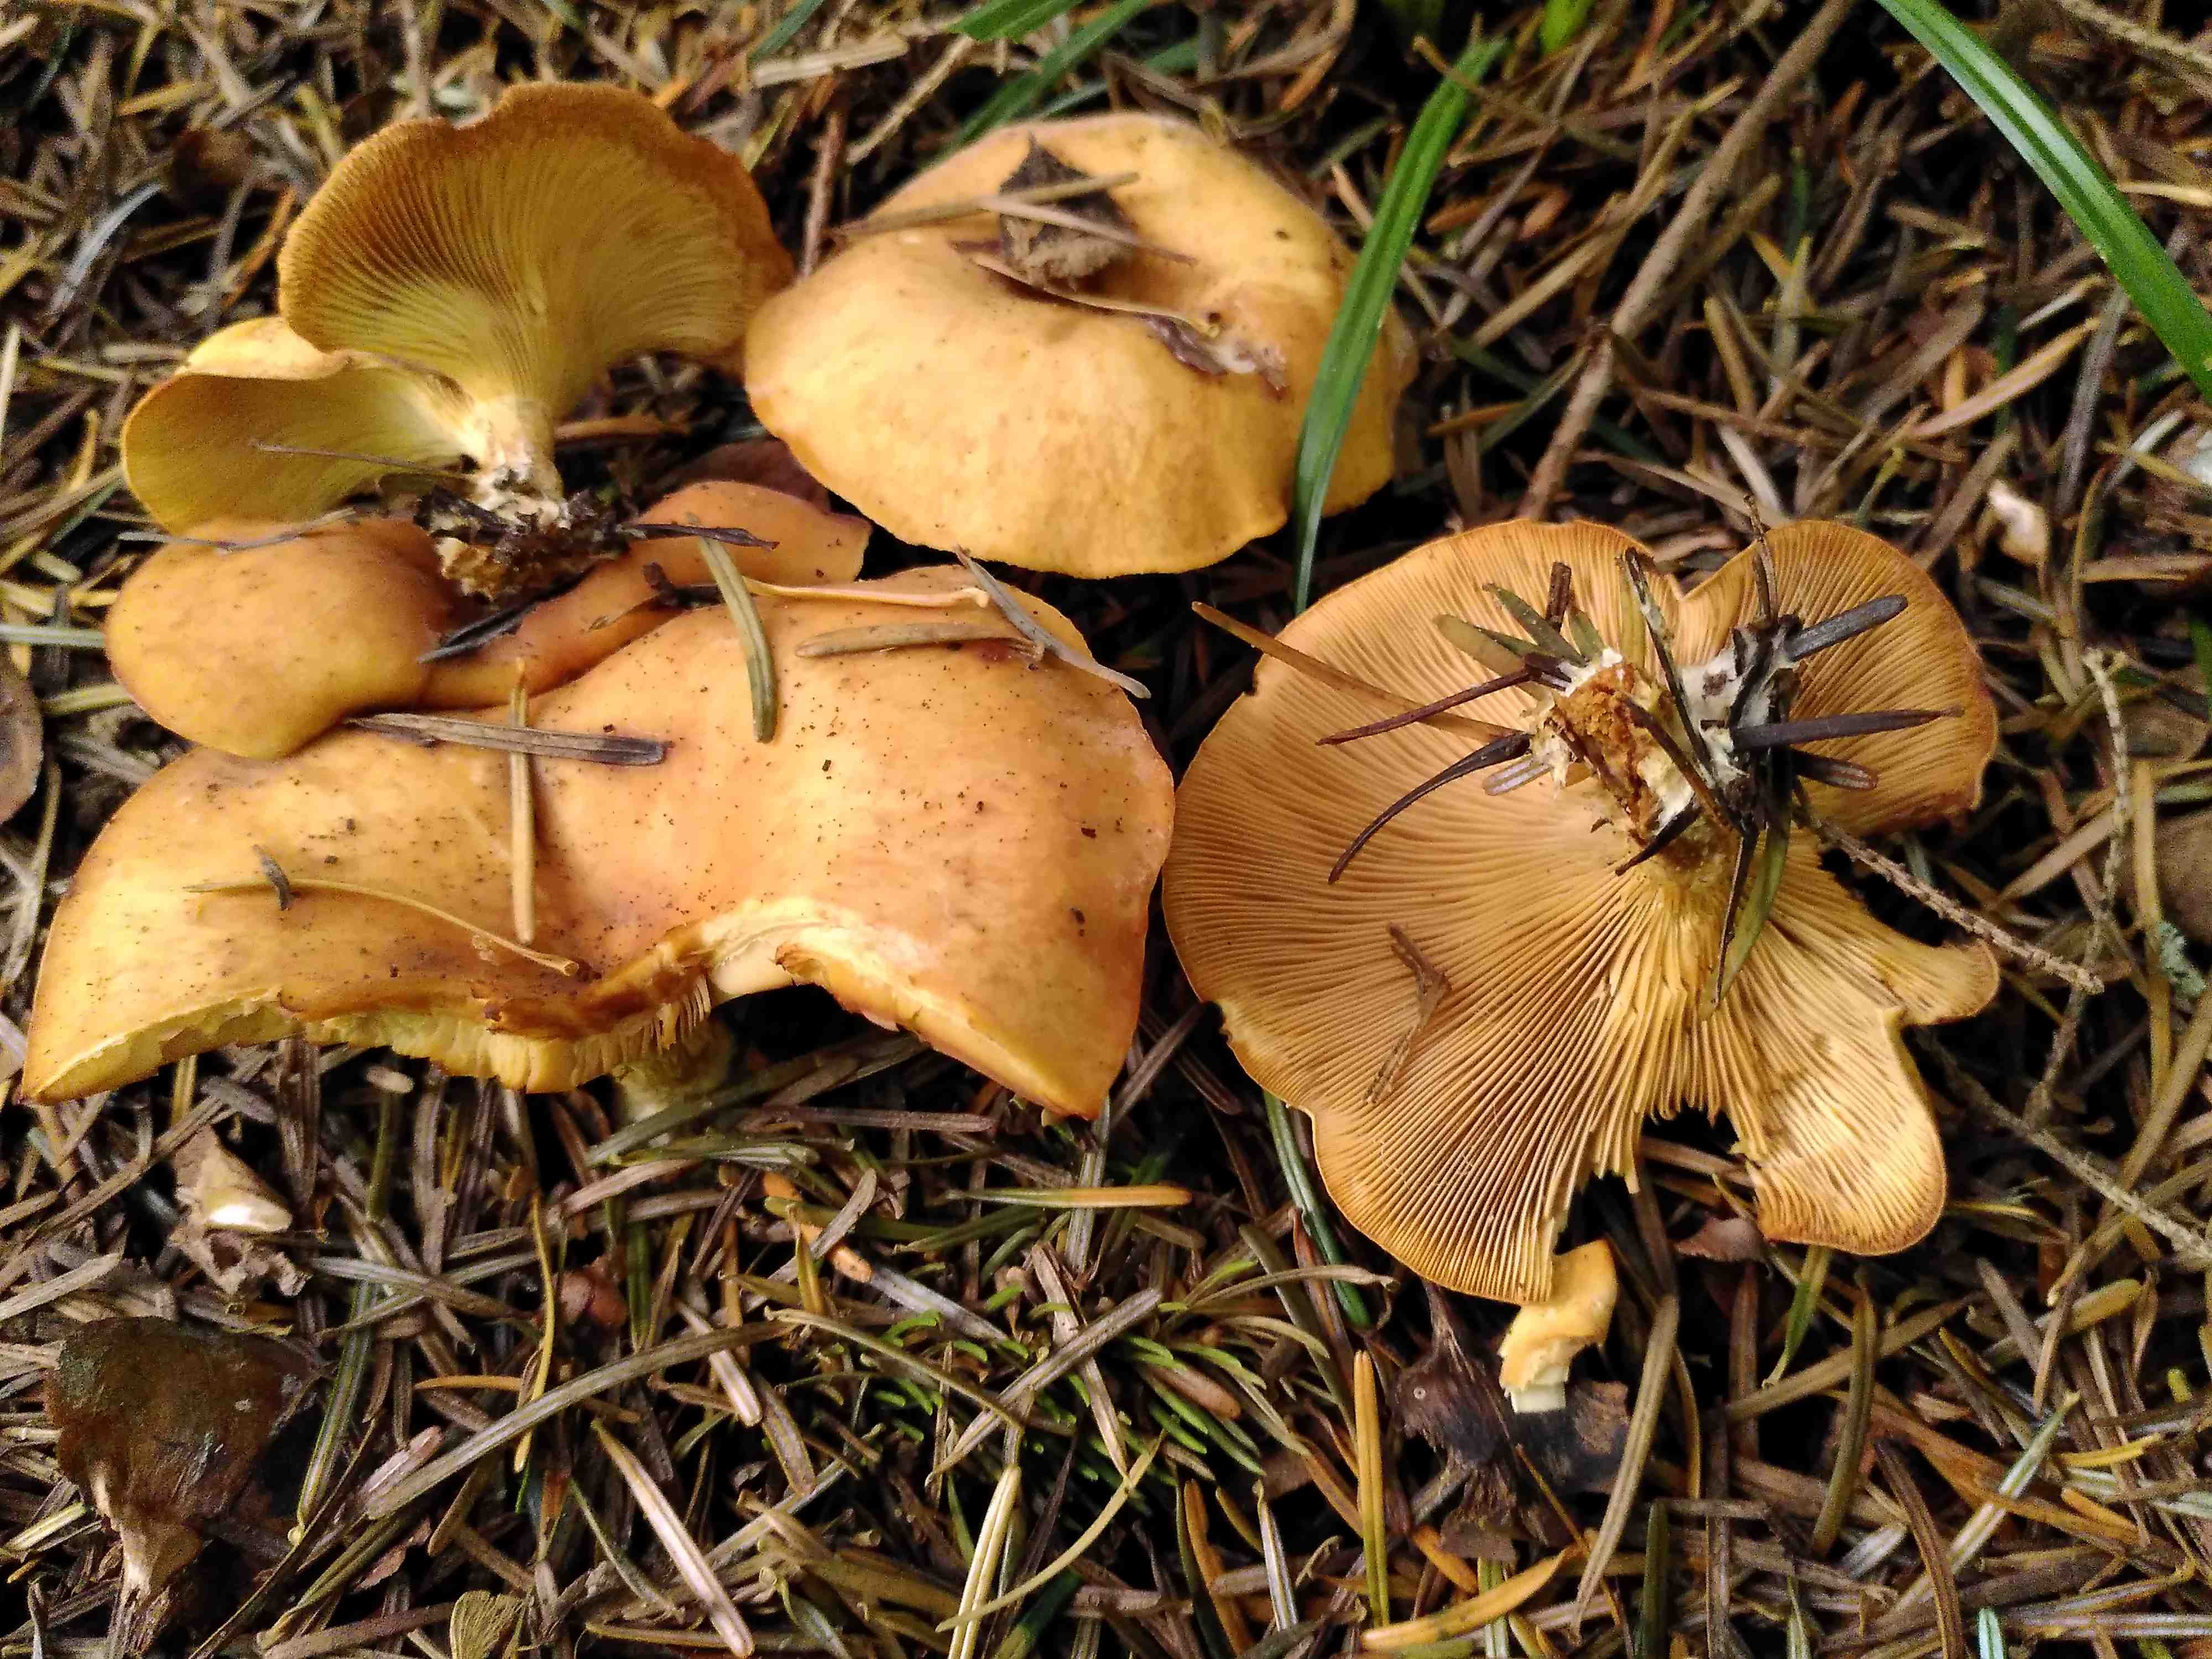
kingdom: Fungi
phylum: Basidiomycota
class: Agaricomycetes
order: Agaricales
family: Tricholomataceae
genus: Paralepista
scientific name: Paralepista flaccida
